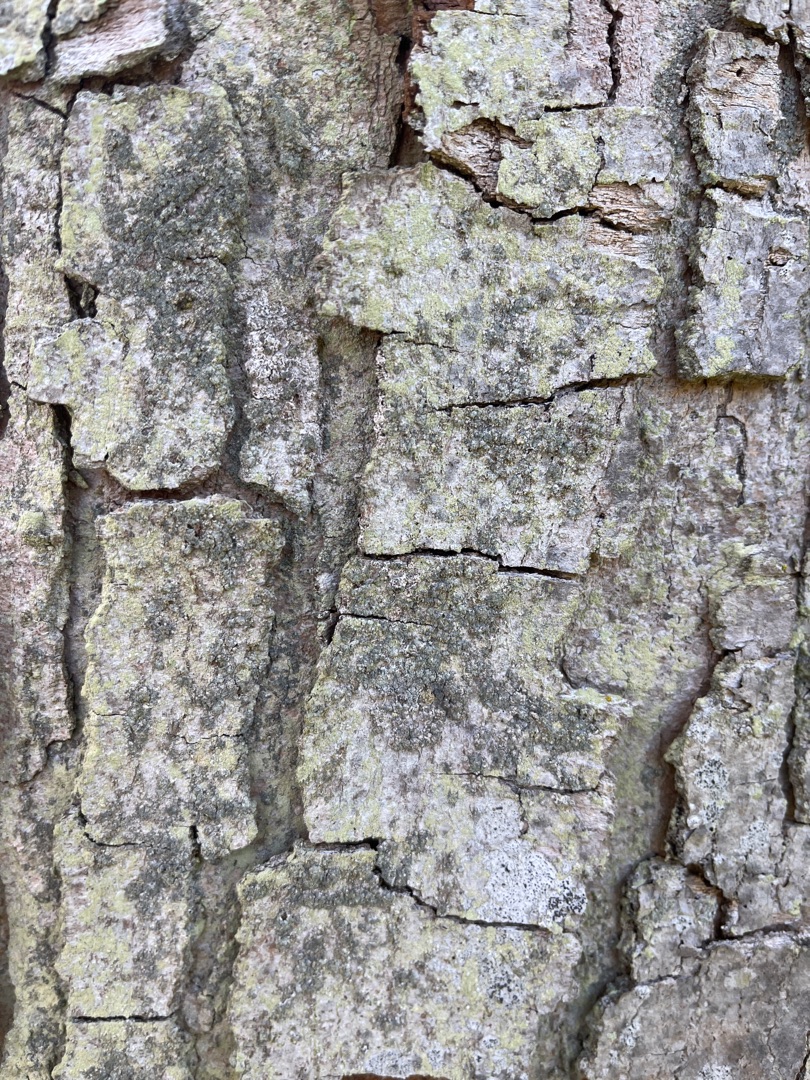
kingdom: Fungi
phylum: Ascomycota
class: Lecanoromycetes
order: Lecanorales
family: Lecanoraceae
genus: Lecidella
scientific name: Lecidella elaeochroma
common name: Grågrøn skivelav
